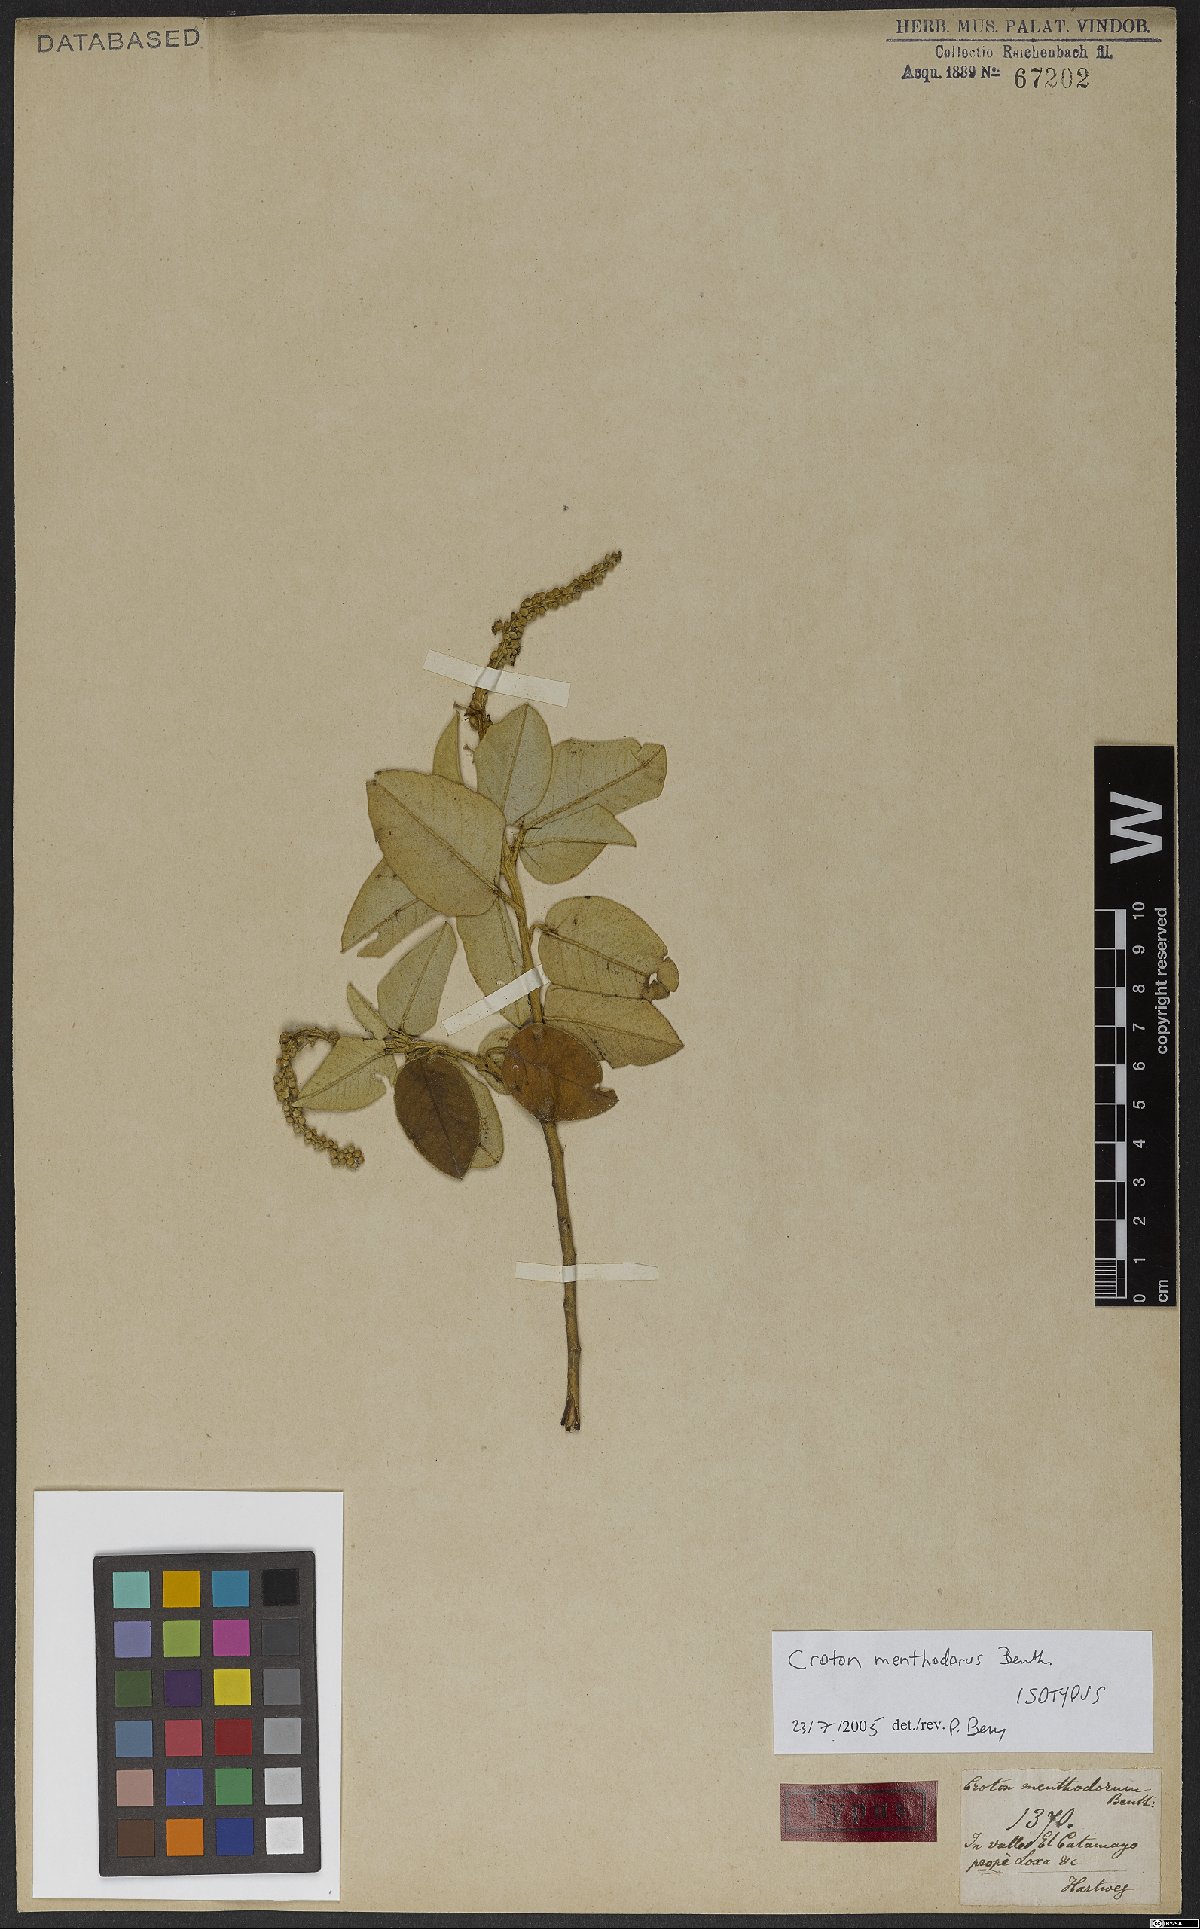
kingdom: Plantae
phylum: Tracheophyta
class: Magnoliopsida
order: Malpighiales
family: Euphorbiaceae
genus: Croton
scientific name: Croton menthodorus
